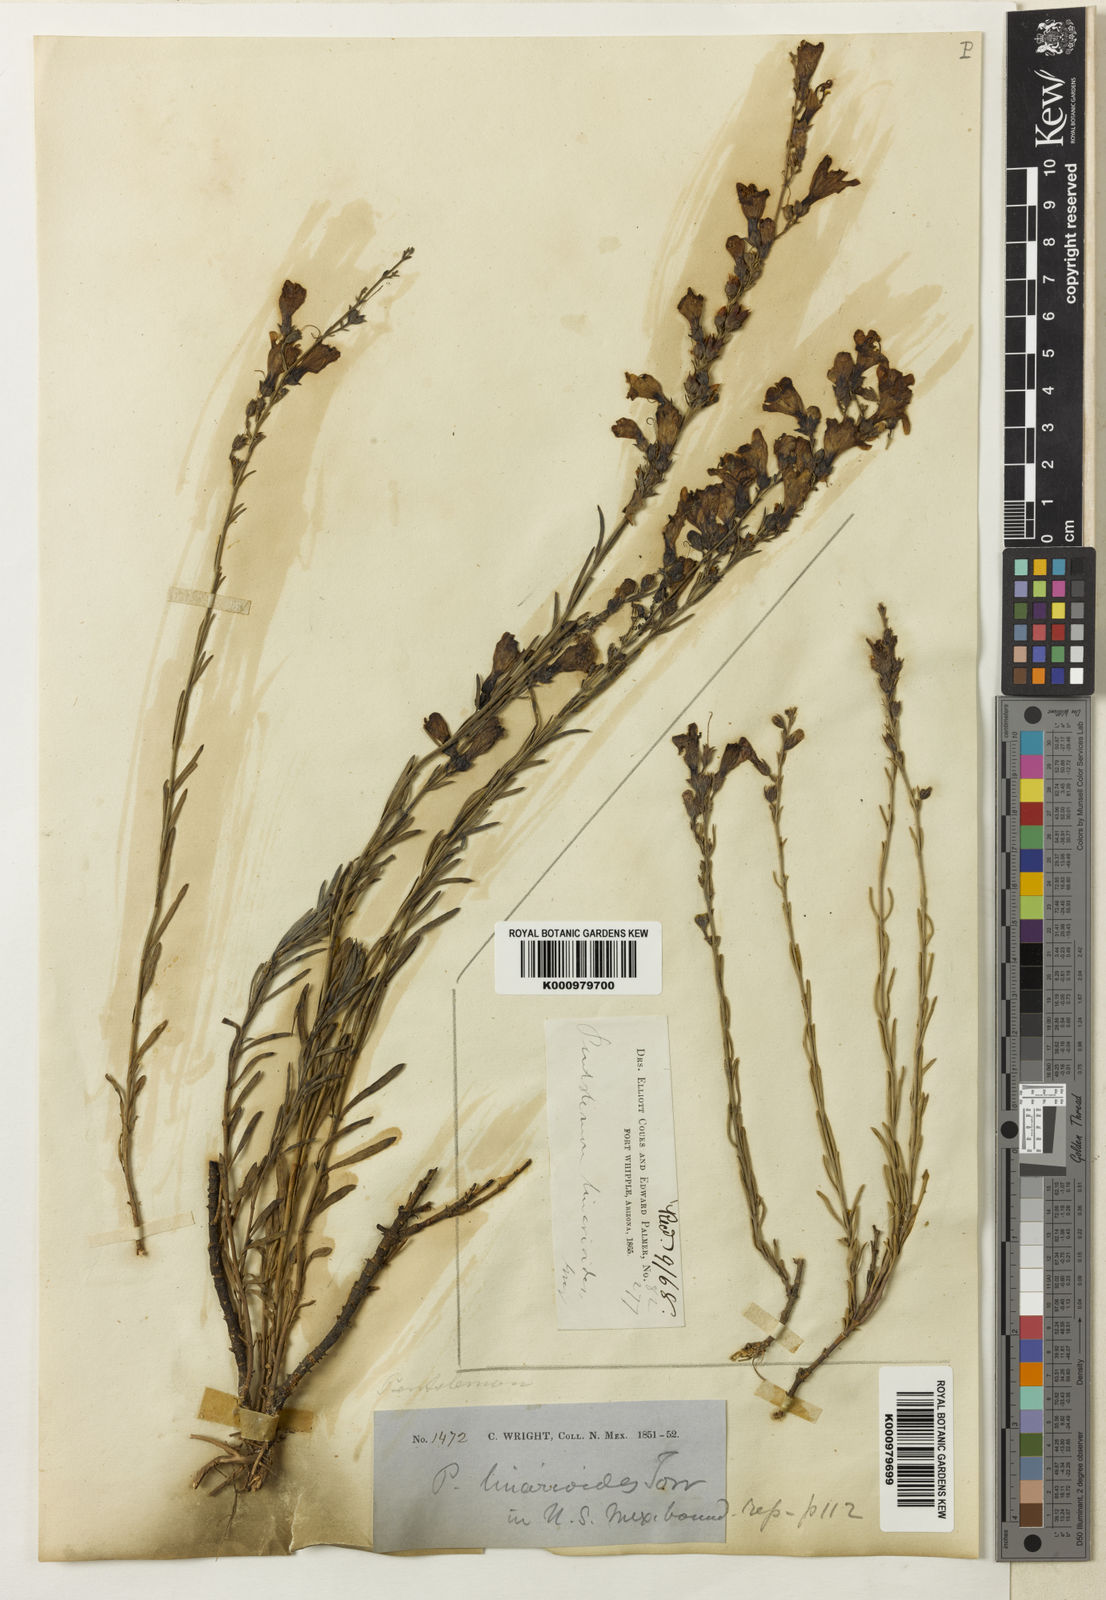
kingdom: Plantae
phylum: Tracheophyta
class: Magnoliopsida
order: Lamiales
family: Plantaginaceae
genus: Penstemon
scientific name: Penstemon linarioides
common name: Siler's penstemon
